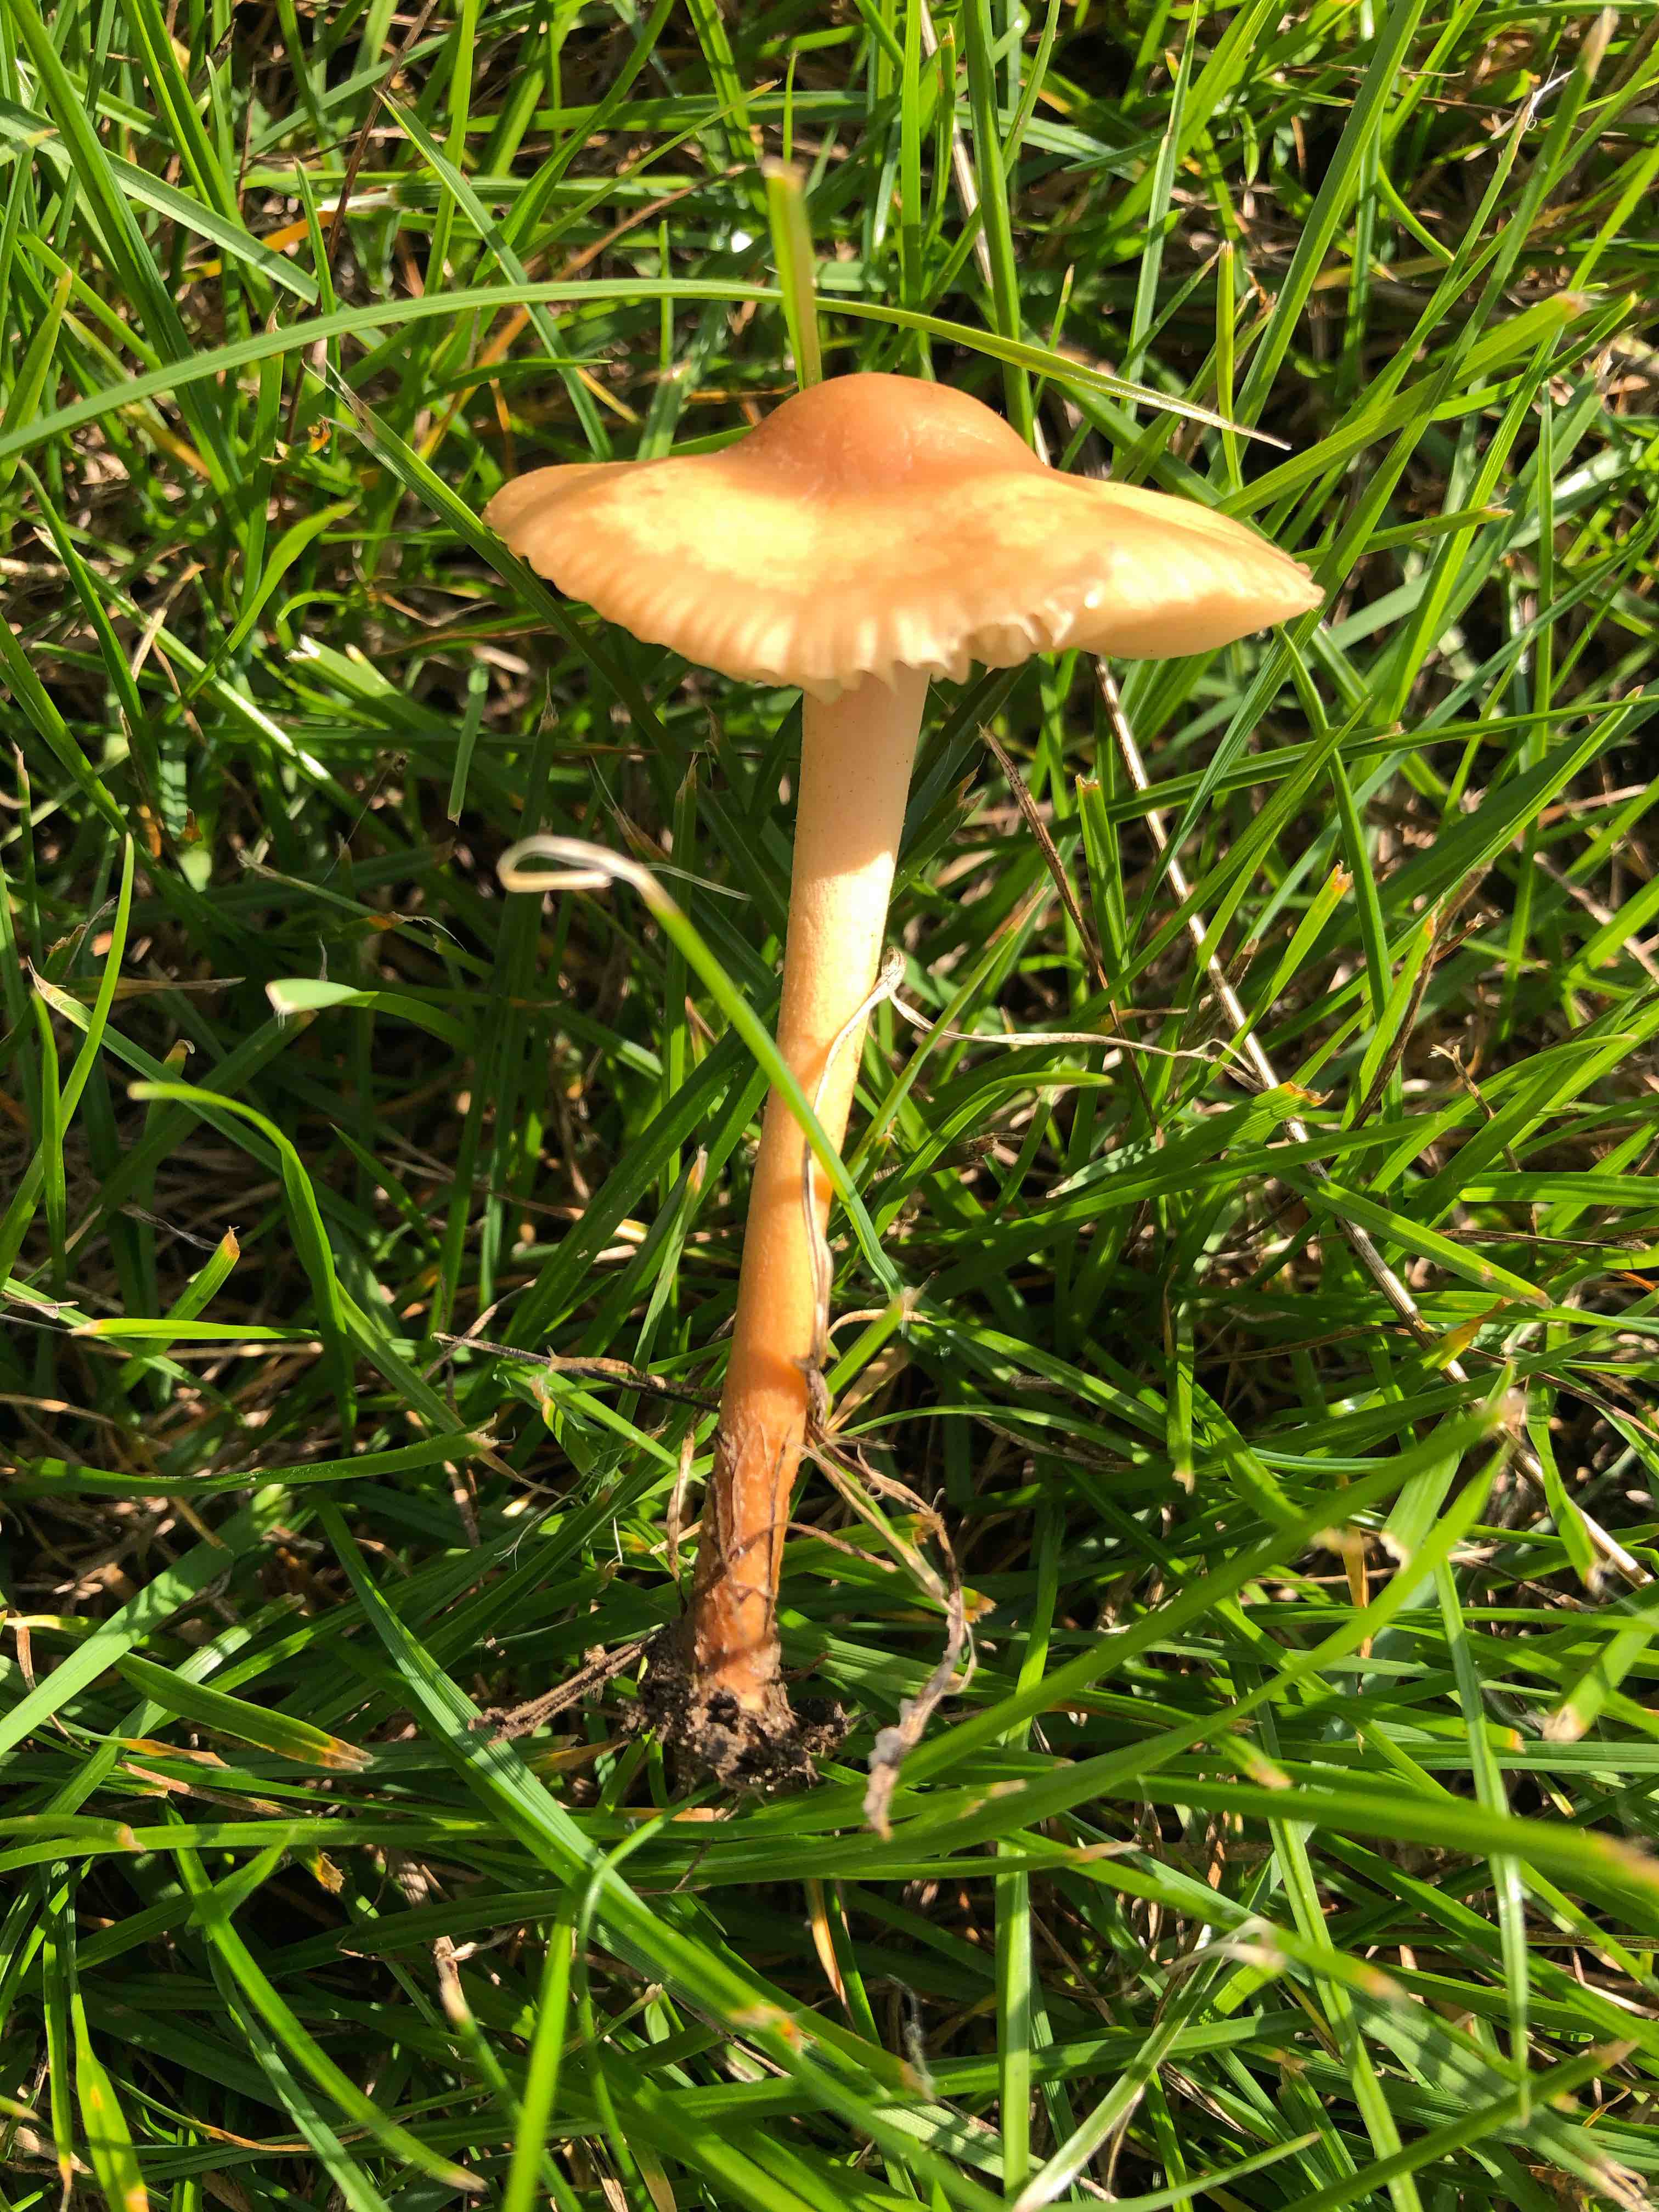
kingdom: Fungi
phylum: Basidiomycota
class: Agaricomycetes
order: Agaricales
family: Marasmiaceae
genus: Marasmius
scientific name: Marasmius oreades
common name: elledans-bruskhat
